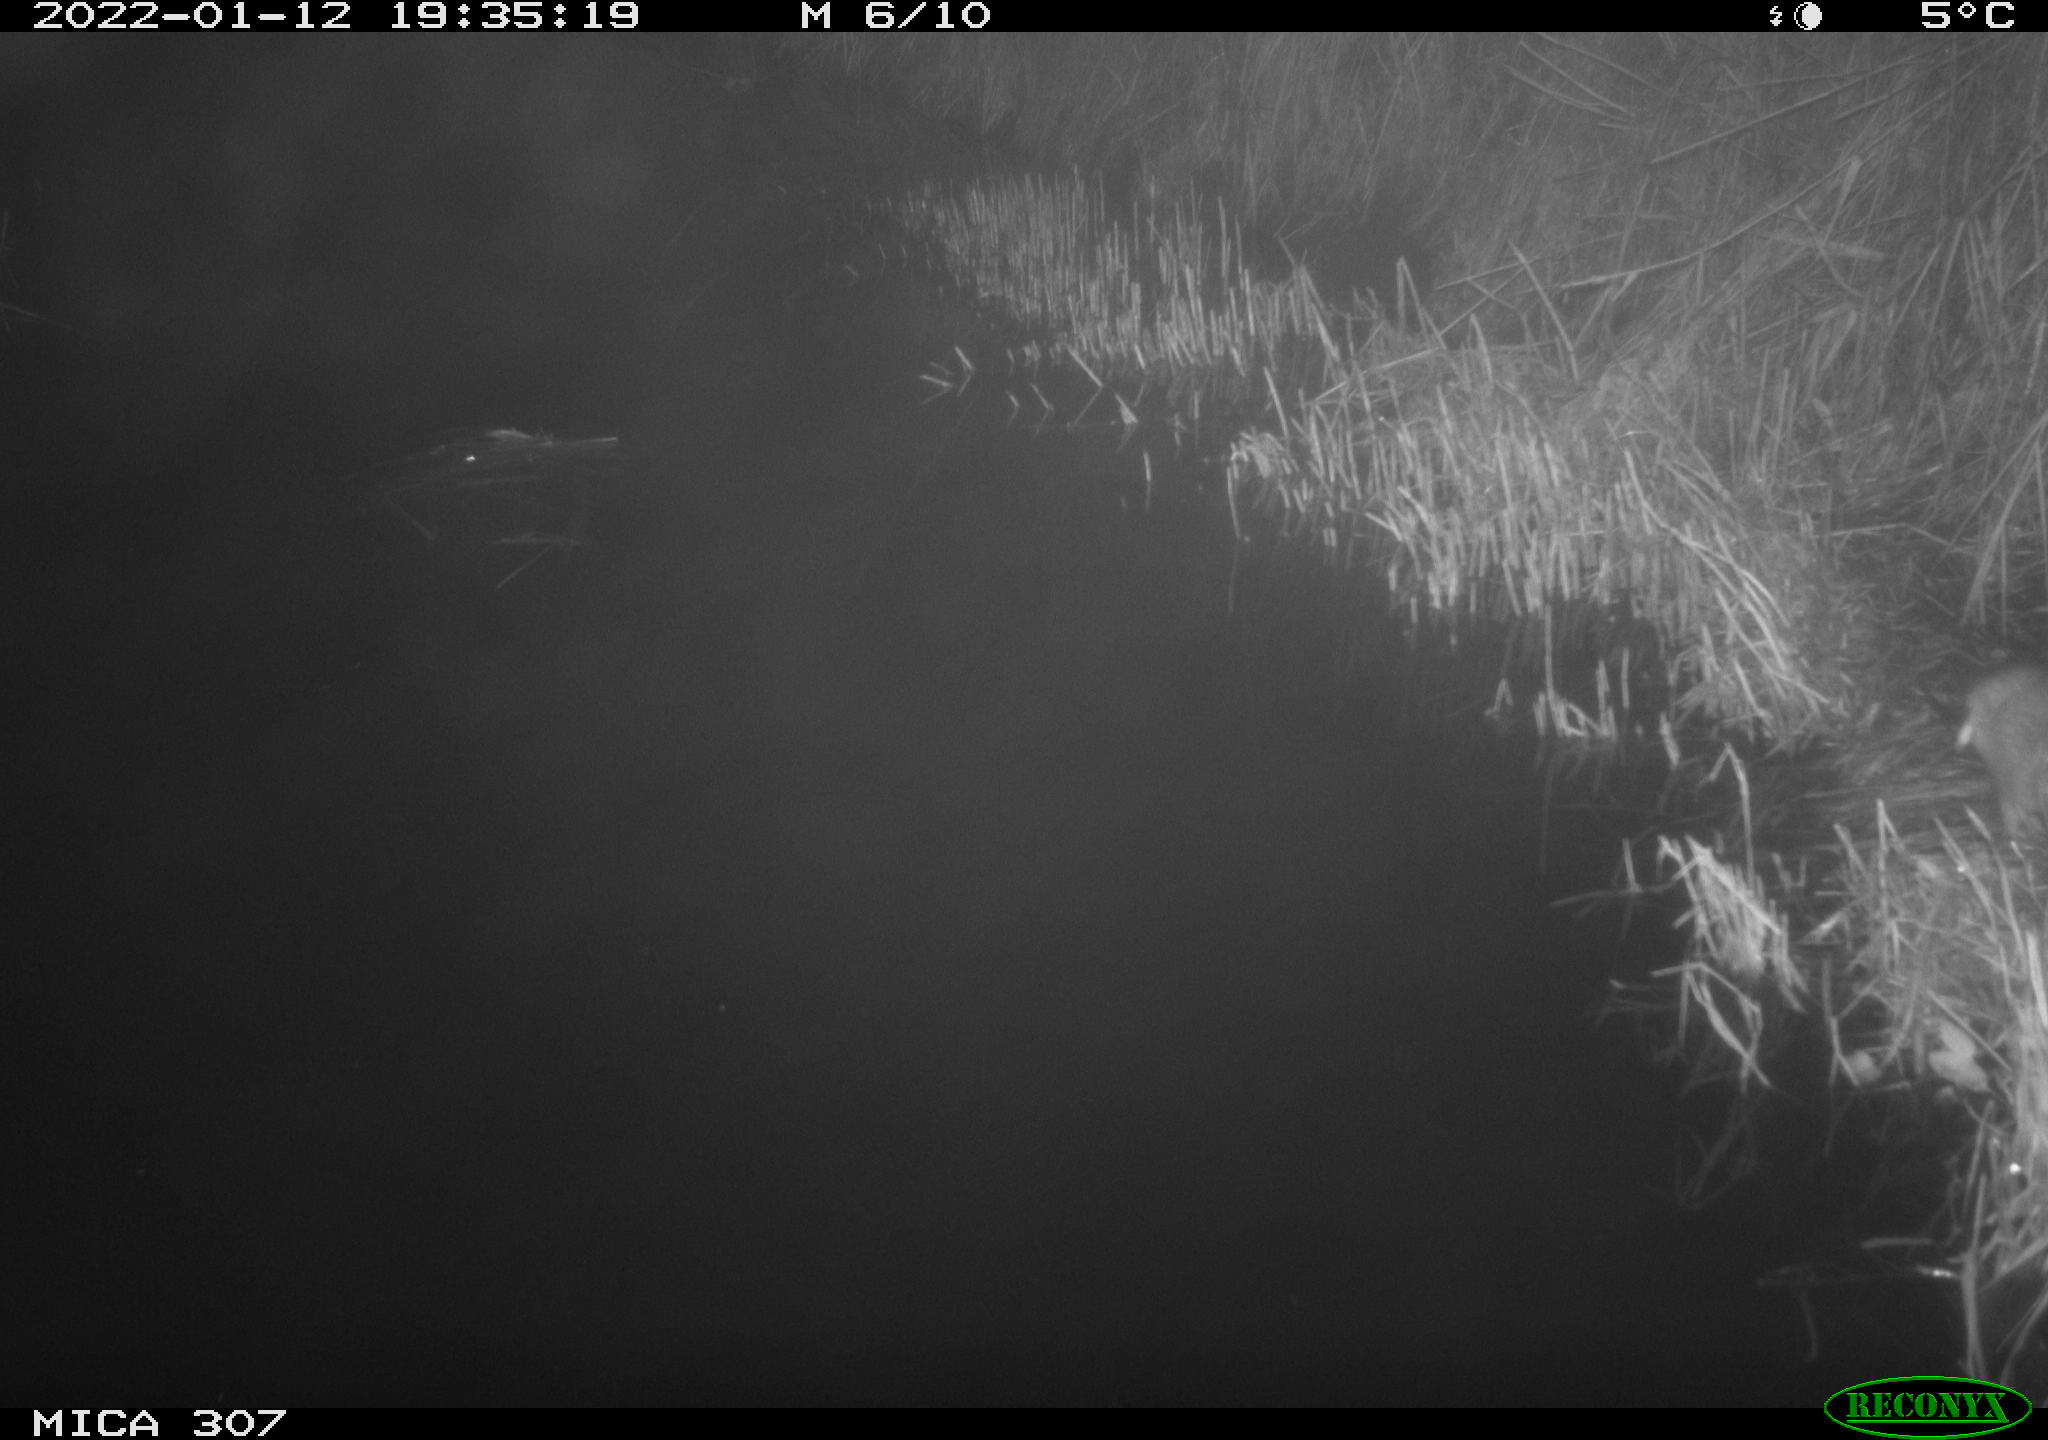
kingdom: Animalia
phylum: Chordata
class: Mammalia
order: Rodentia
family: Muridae
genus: Rattus
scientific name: Rattus norvegicus
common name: Brown rat
